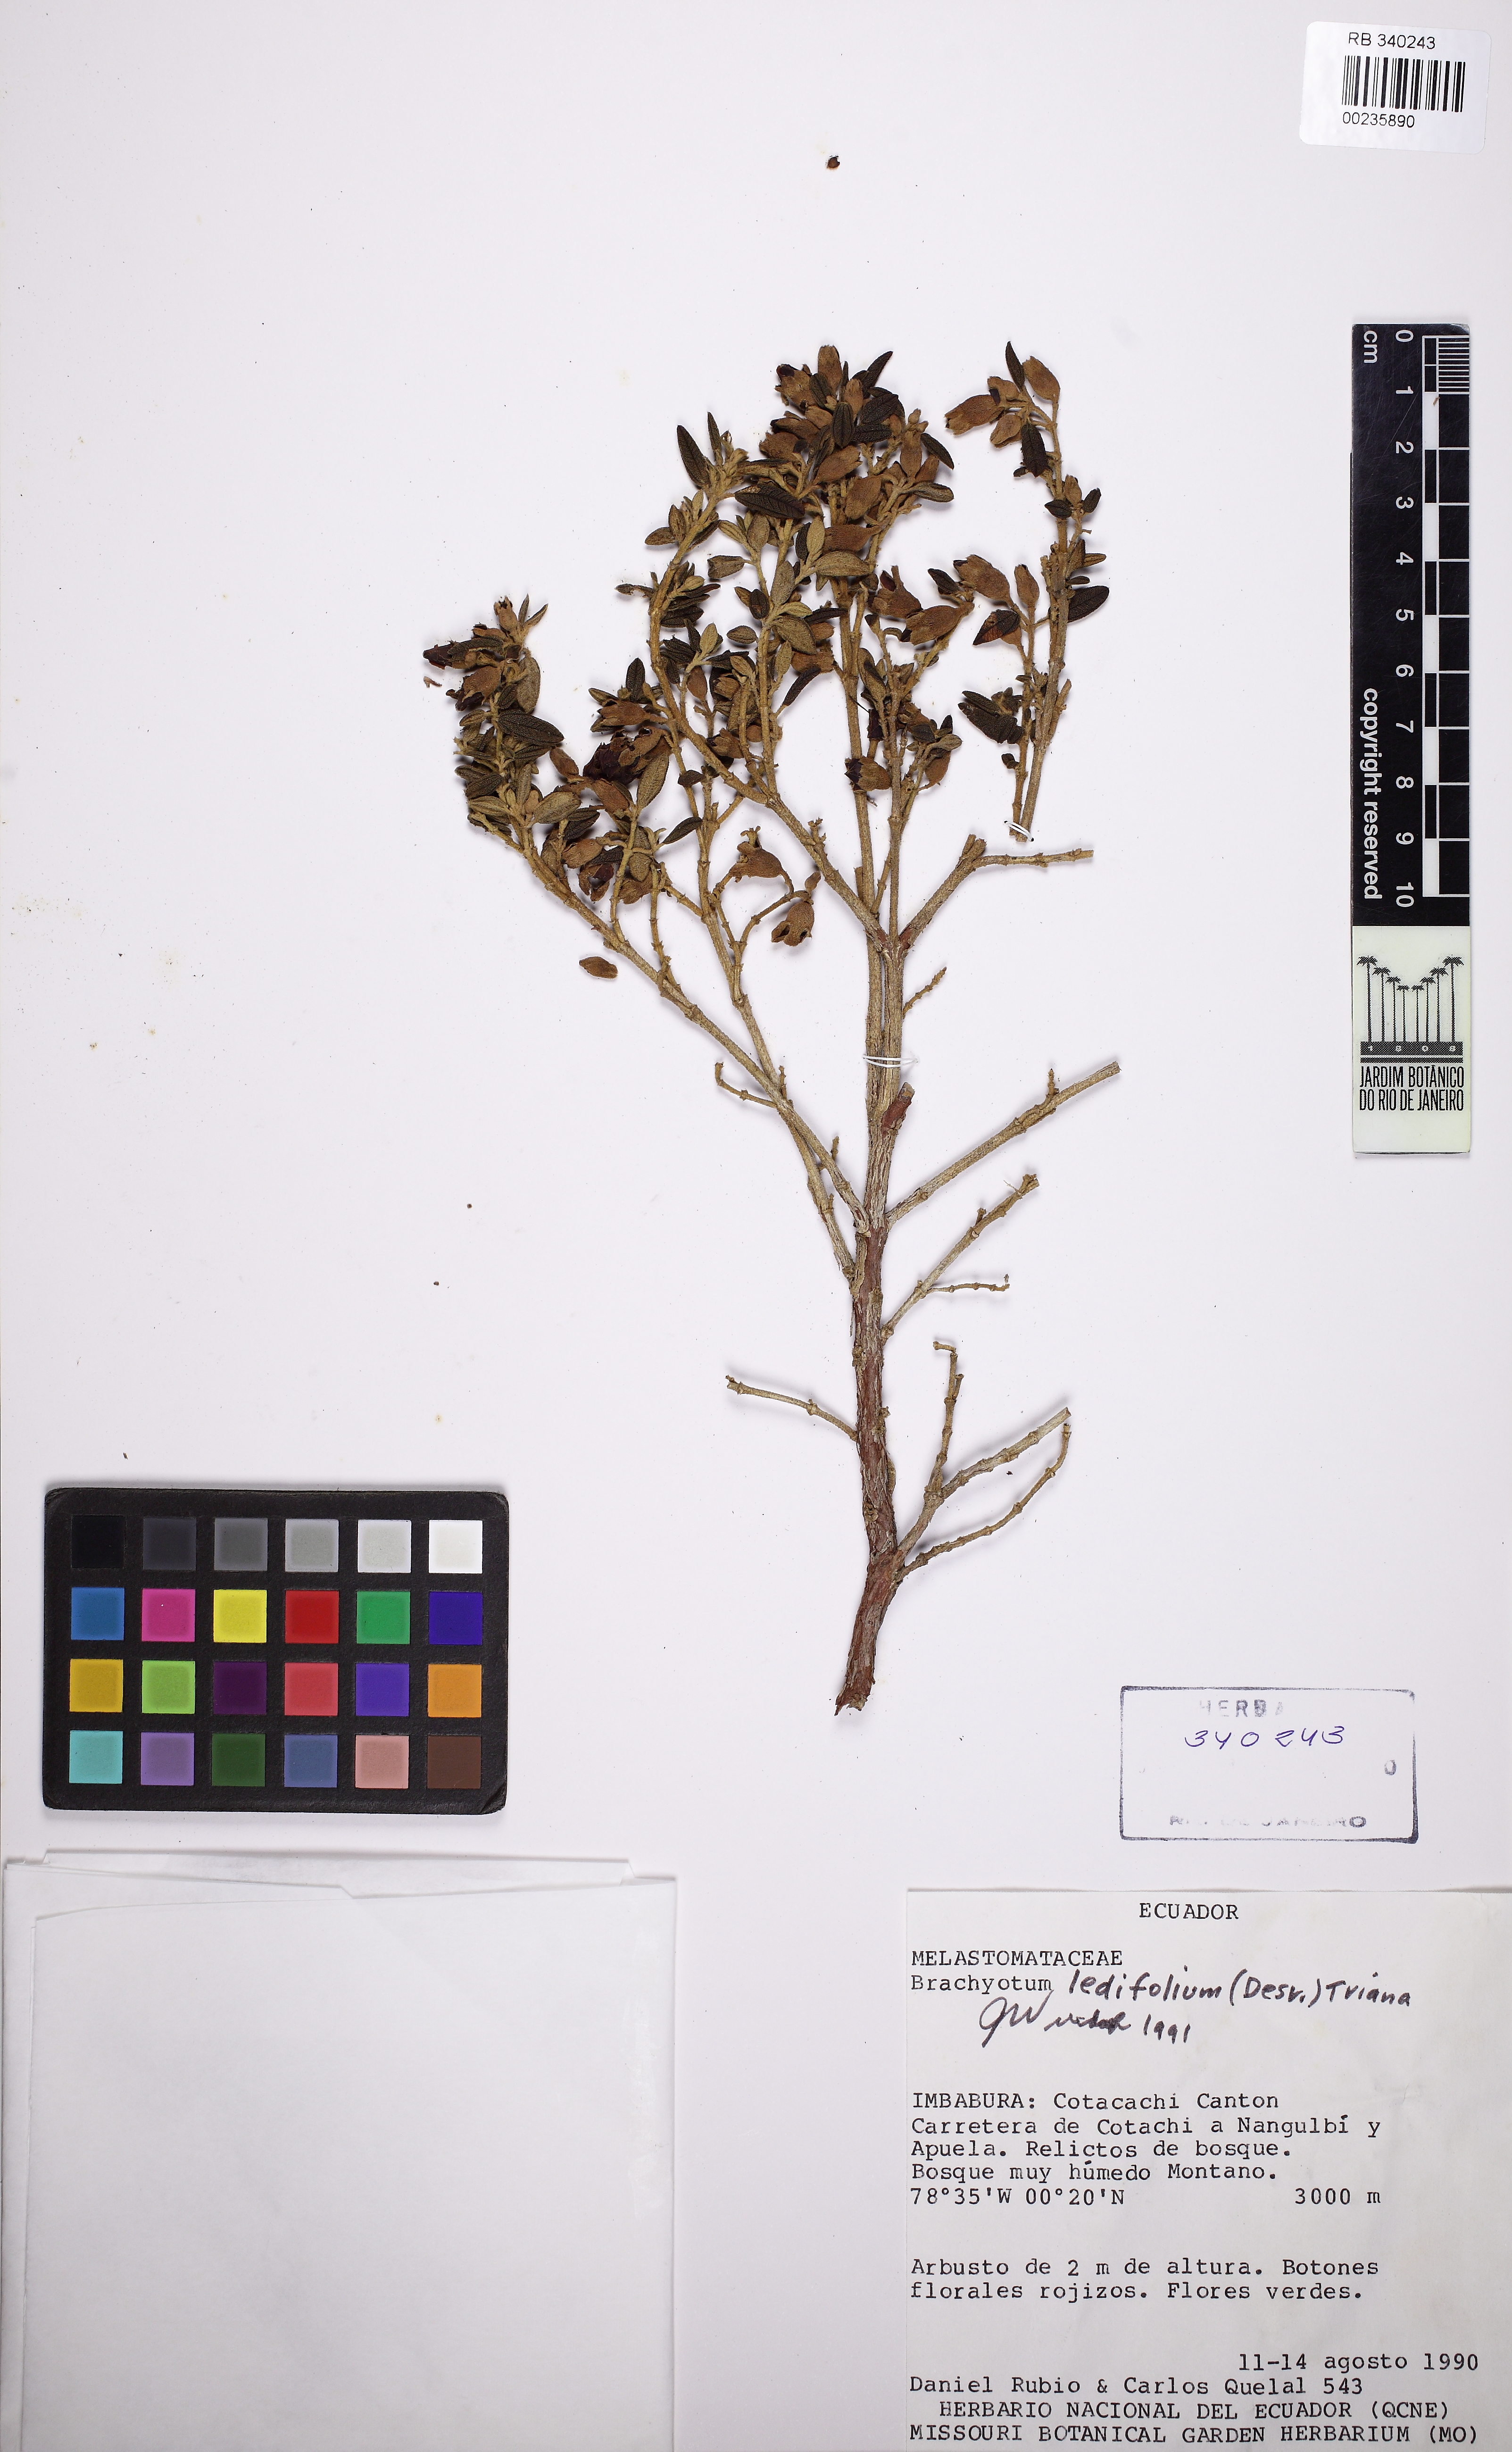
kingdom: Plantae
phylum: Tracheophyta
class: Magnoliopsida
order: Myrtales
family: Melastomataceae
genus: Brachyotum
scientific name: Brachyotum ledifolium
